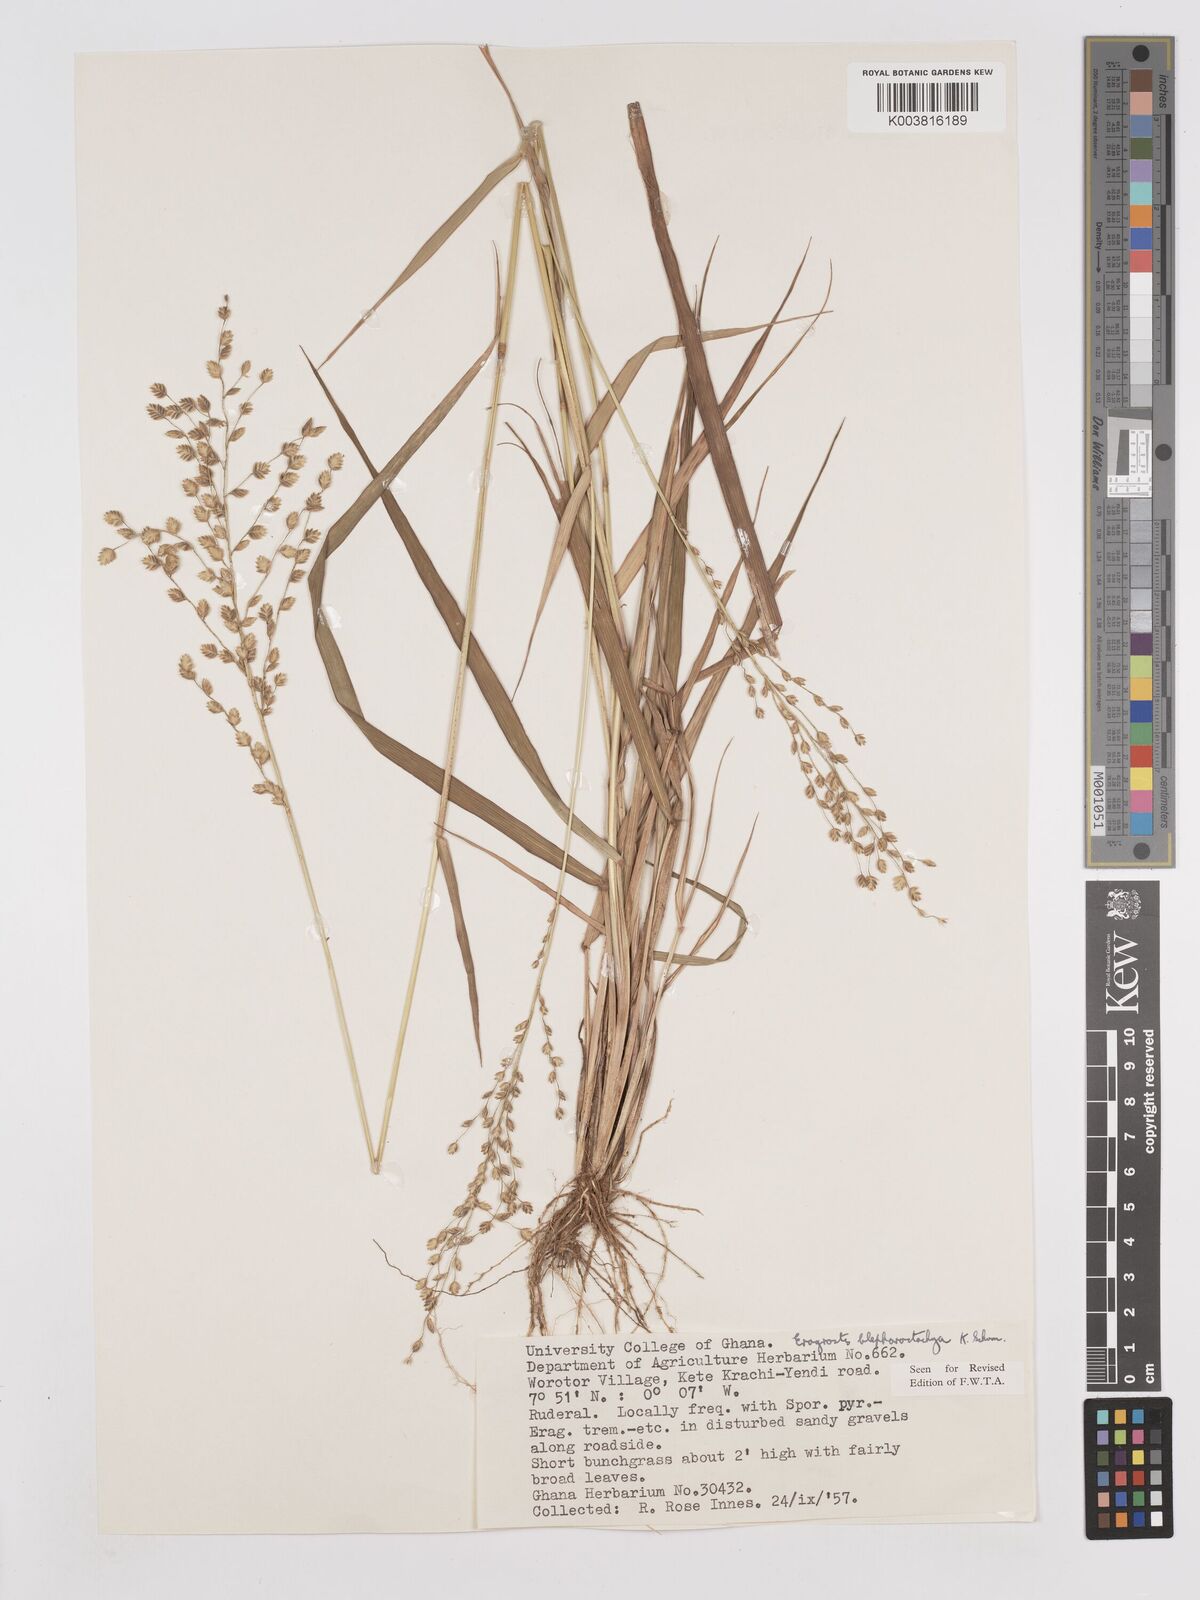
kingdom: Plantae
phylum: Tracheophyta
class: Liliopsida
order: Poales
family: Poaceae
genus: Eragrostis
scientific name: Eragrostis blepharostachya
